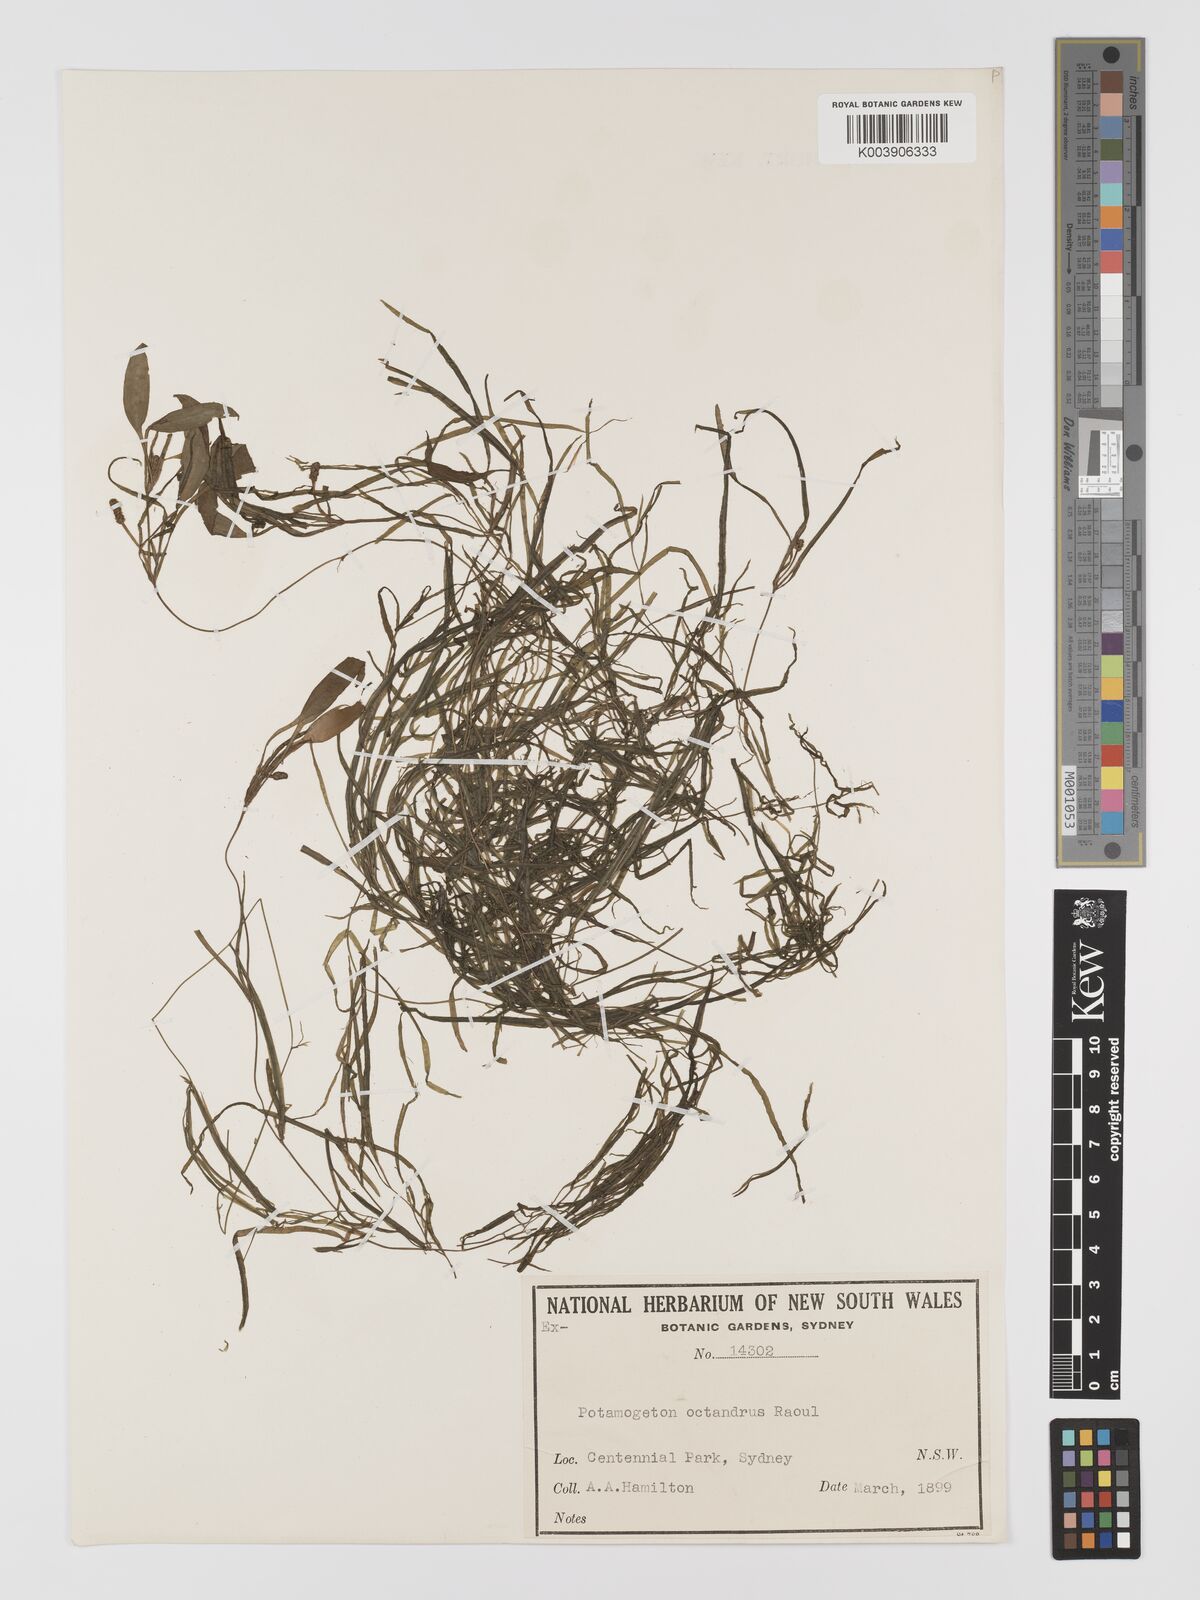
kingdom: Plantae
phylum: Tracheophyta
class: Liliopsida
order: Alismatales
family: Potamogetonaceae
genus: Potamogeton
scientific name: Potamogeton ochreatus
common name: Blunt pondweed
